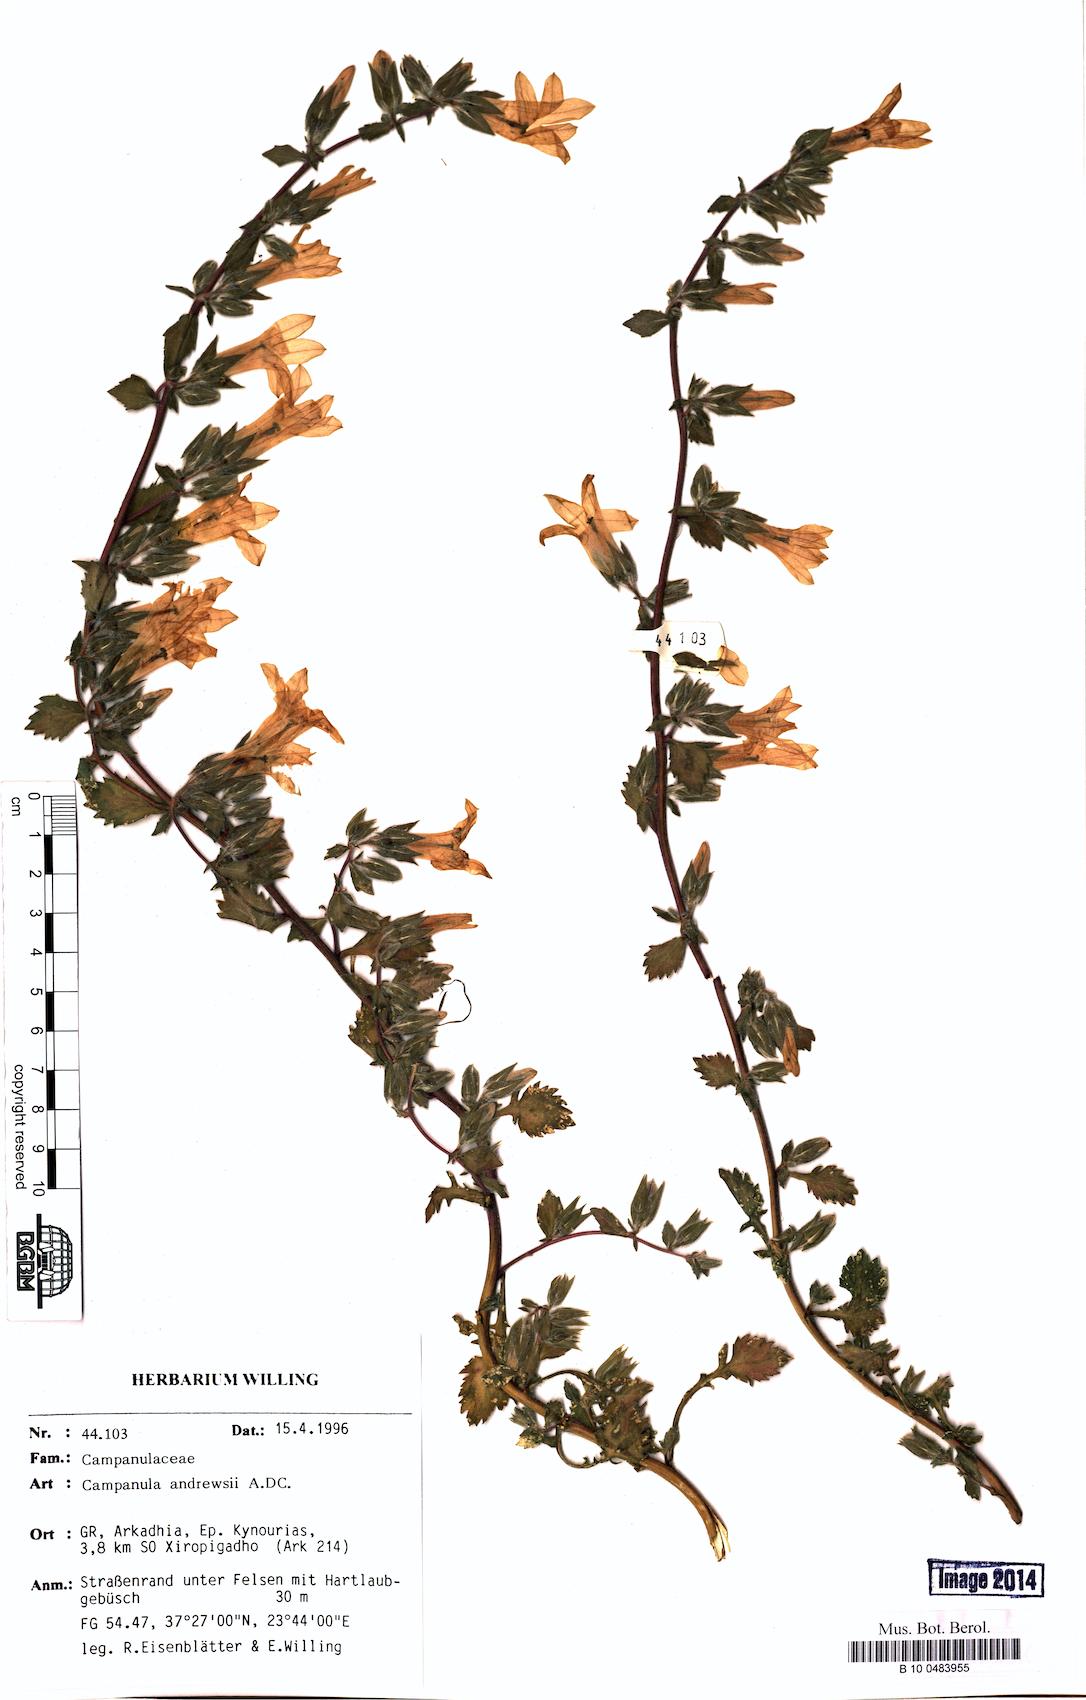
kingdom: Plantae
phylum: Tracheophyta
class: Magnoliopsida
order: Asterales
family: Campanulaceae
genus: Campanula
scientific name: Campanula andrewsii
